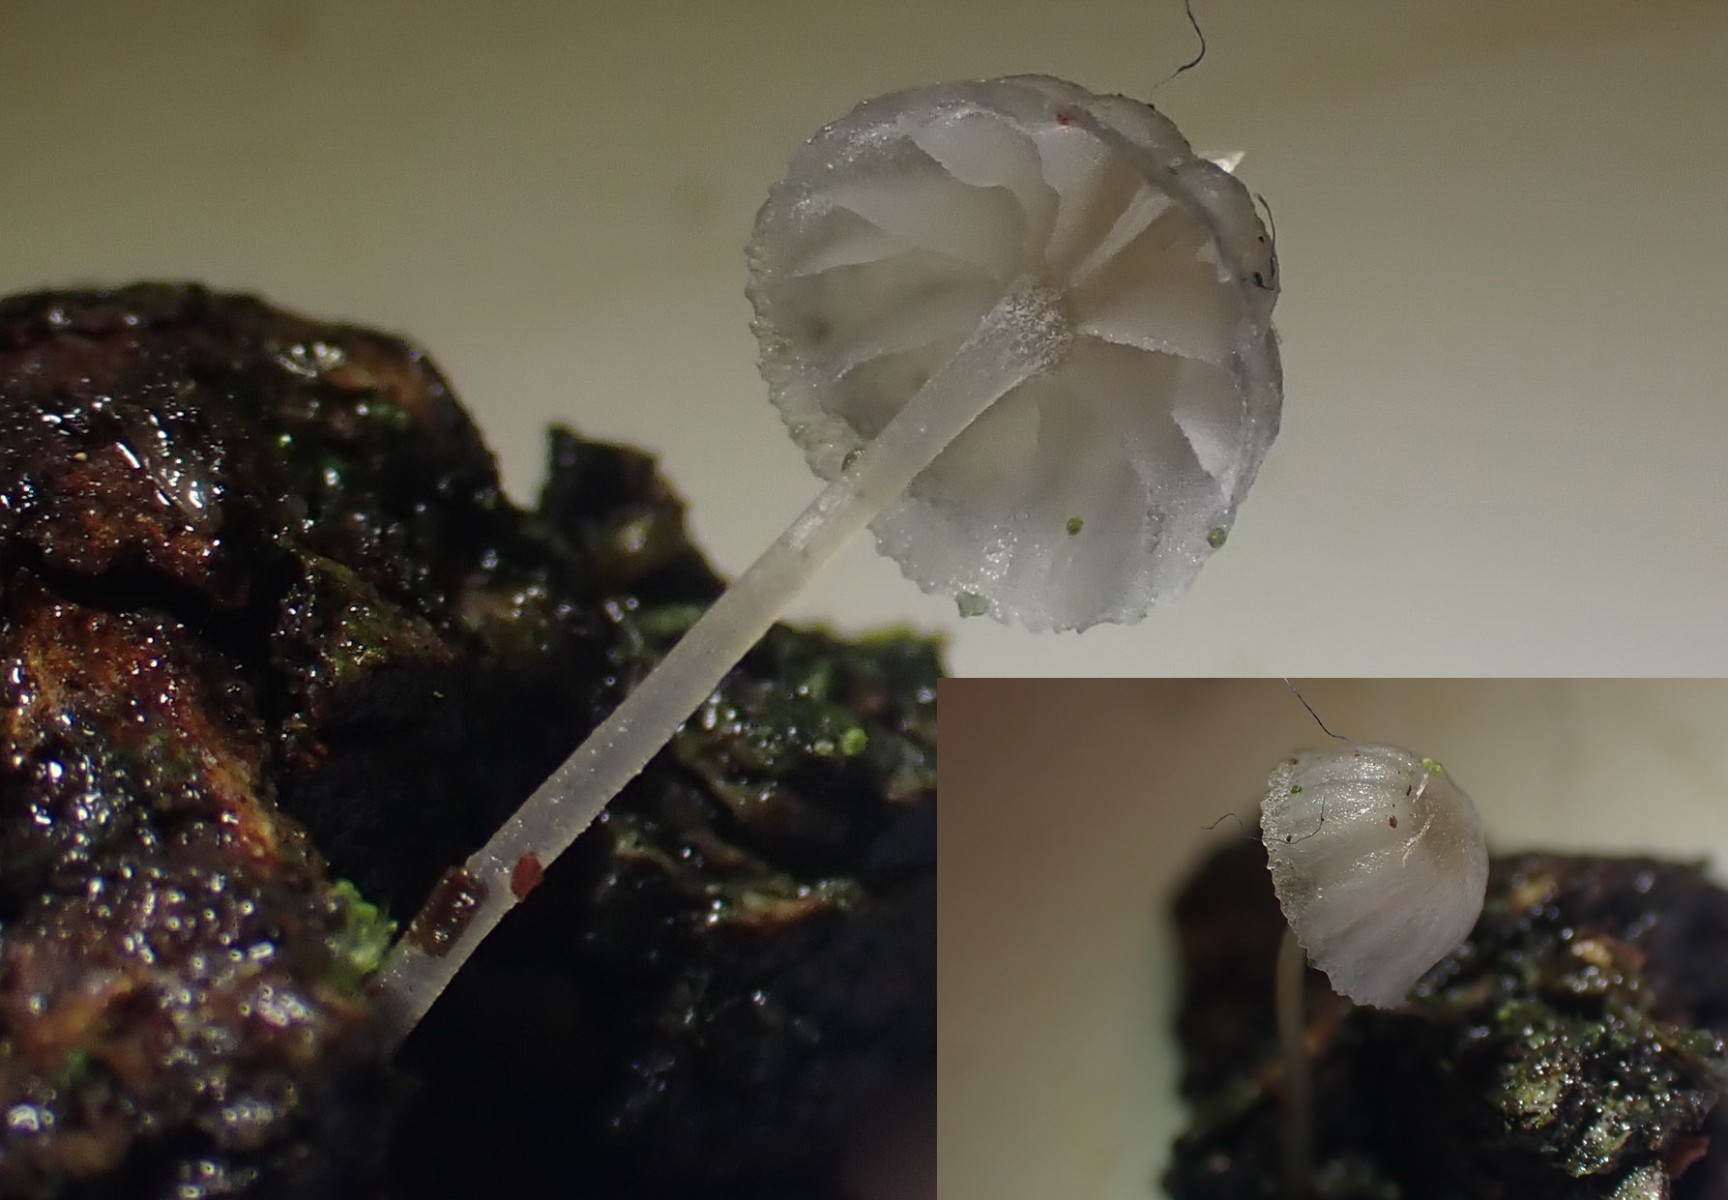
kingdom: Fungi
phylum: Basidiomycota
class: Agaricomycetes
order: Agaricales
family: Porotheleaceae
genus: Phloeomana
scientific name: Phloeomana speirea
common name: kvist-huesvamp
